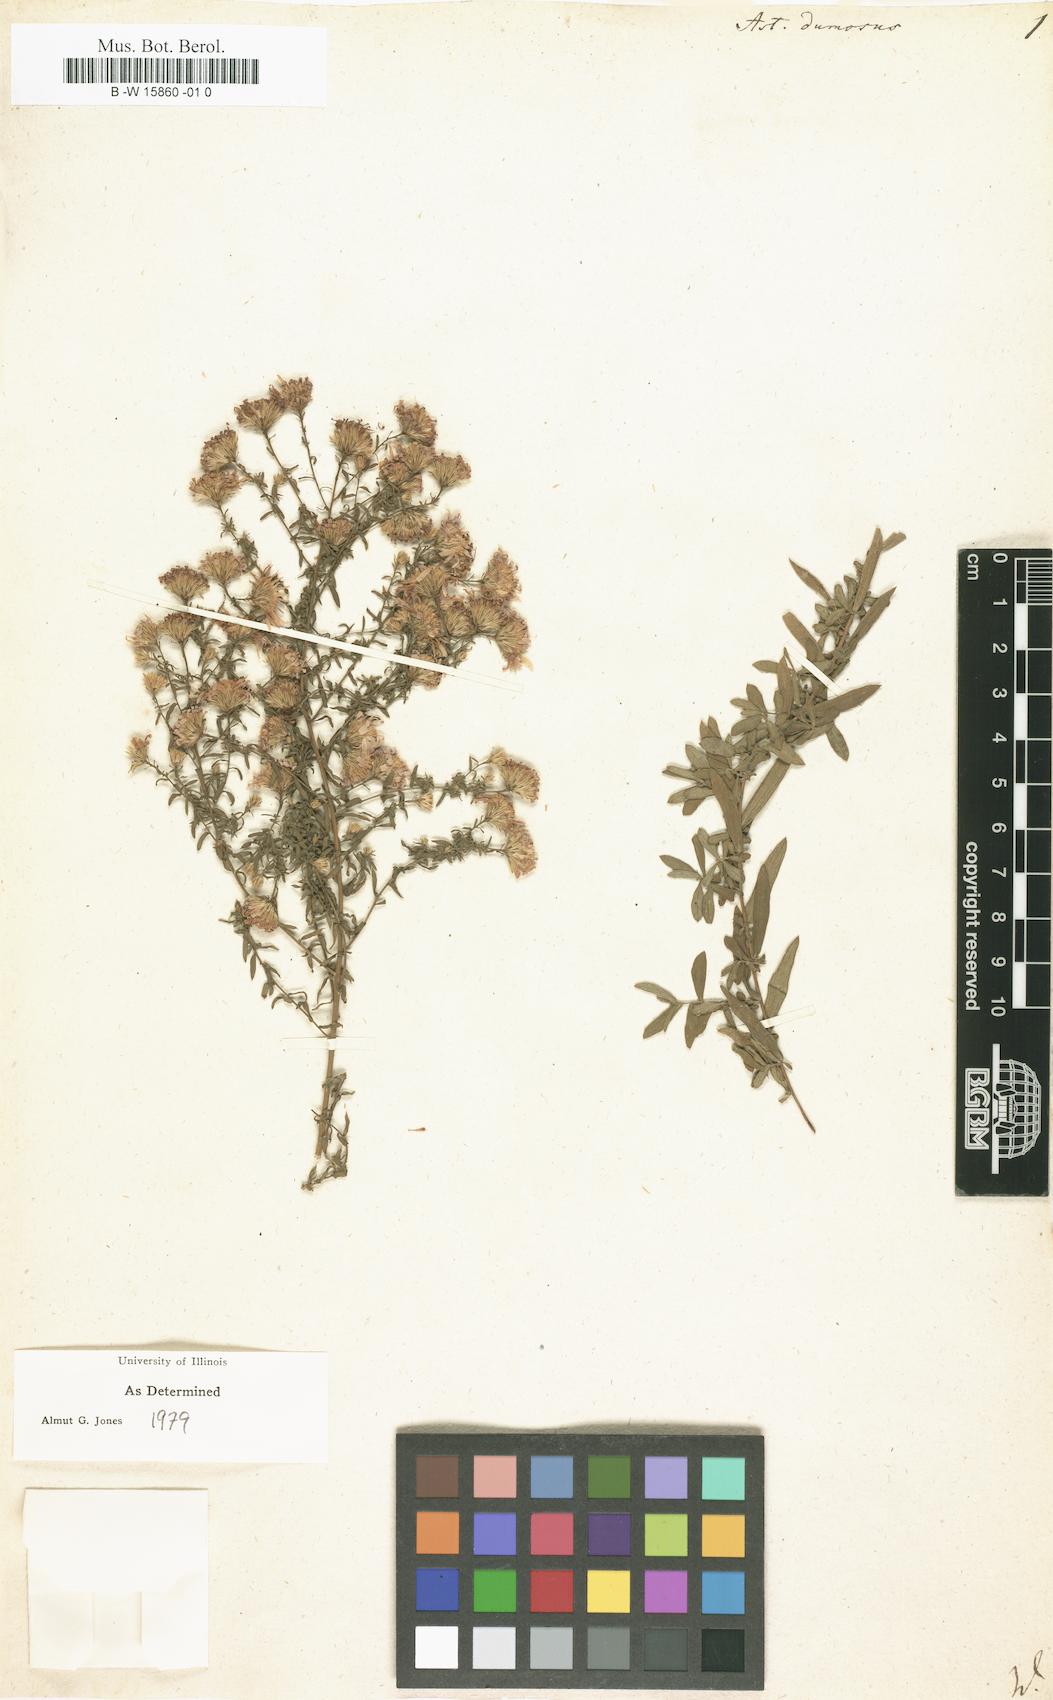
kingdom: Plantae
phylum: Tracheophyta
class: Magnoliopsida
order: Asterales
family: Asteraceae
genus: Symphyotrichum
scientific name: Symphyotrichum dumosum
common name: Bushy aster
